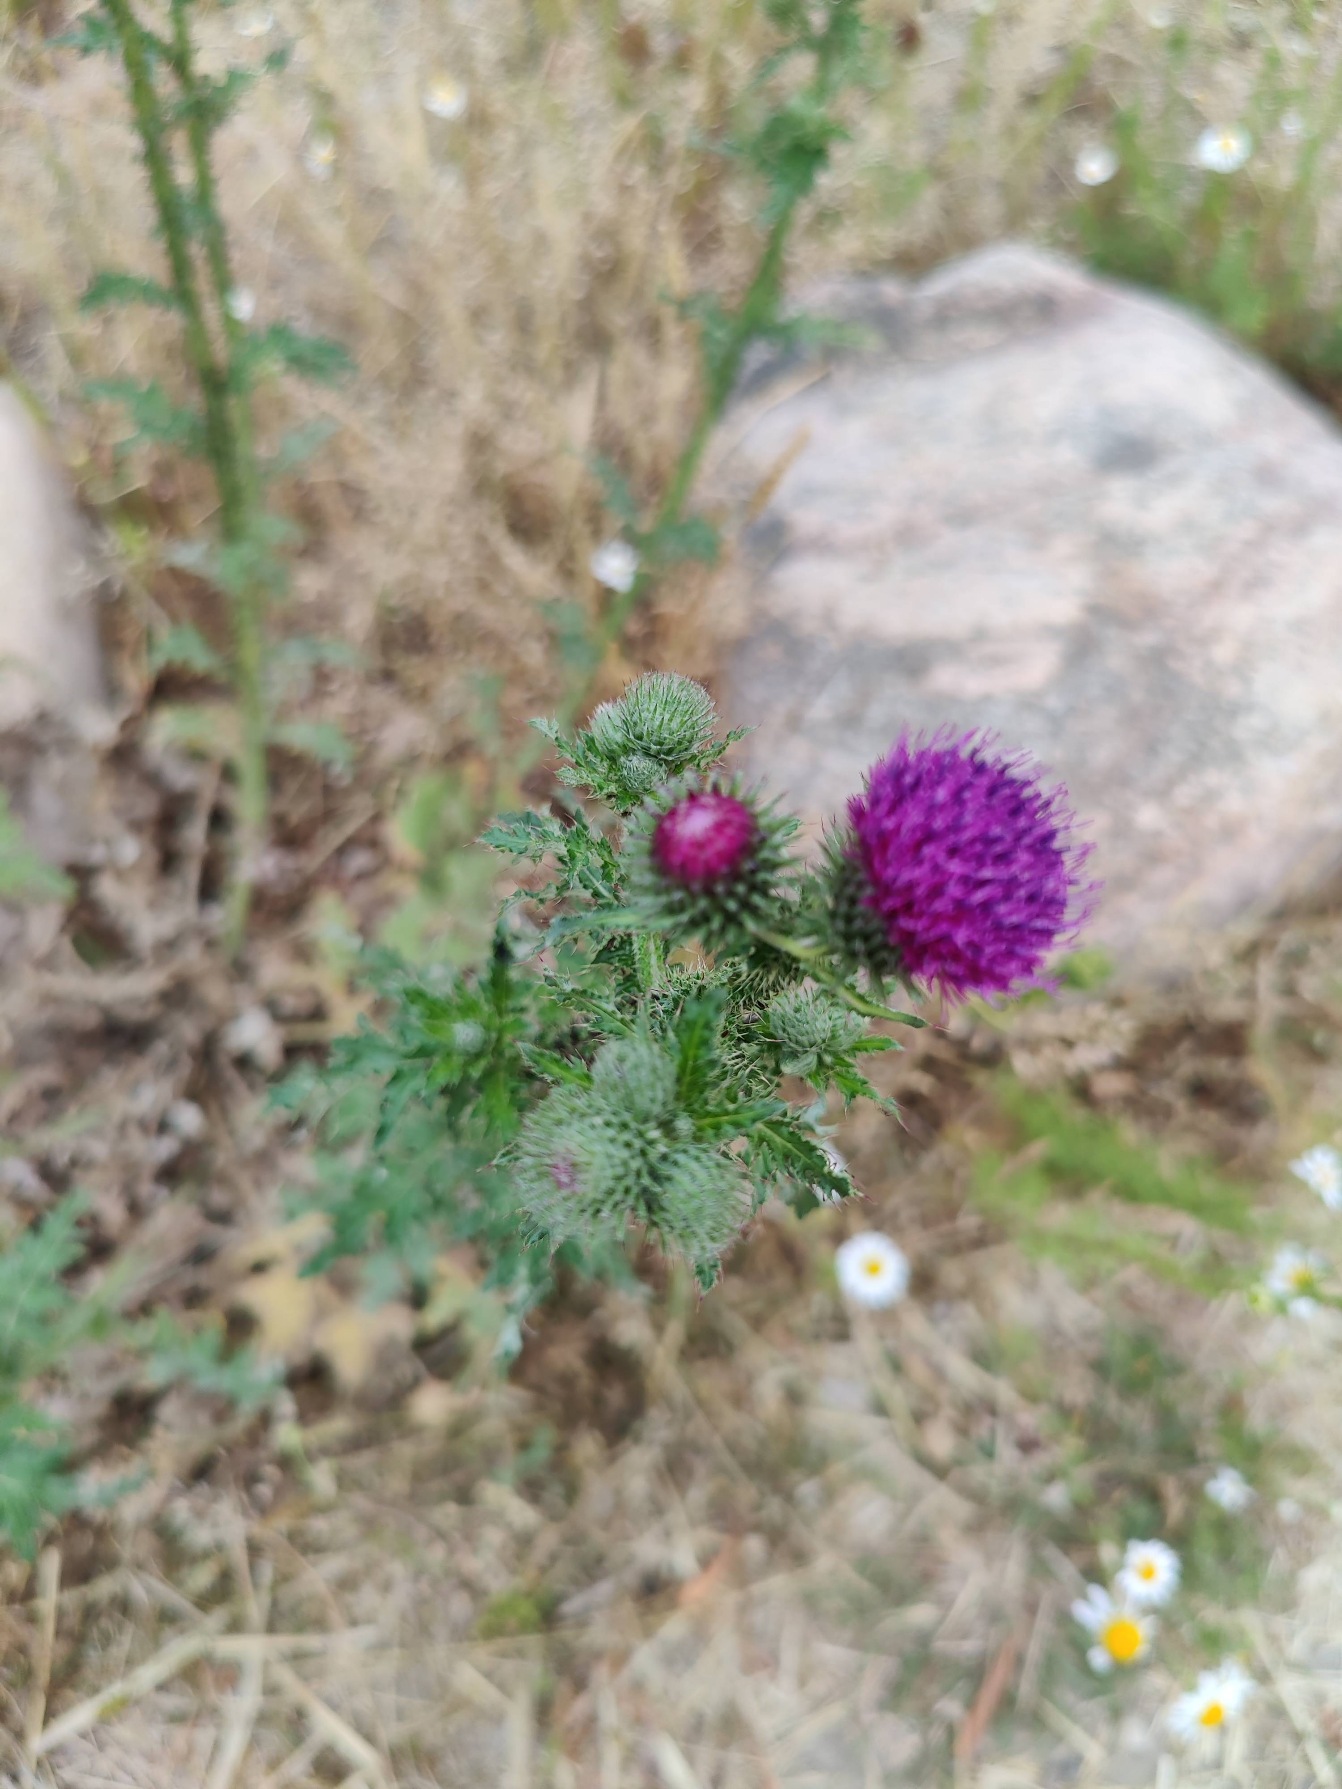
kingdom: Plantae
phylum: Tracheophyta
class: Magnoliopsida
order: Asterales
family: Asteraceae
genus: Carduus
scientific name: Carduus crispus
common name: Kruset tidsel
